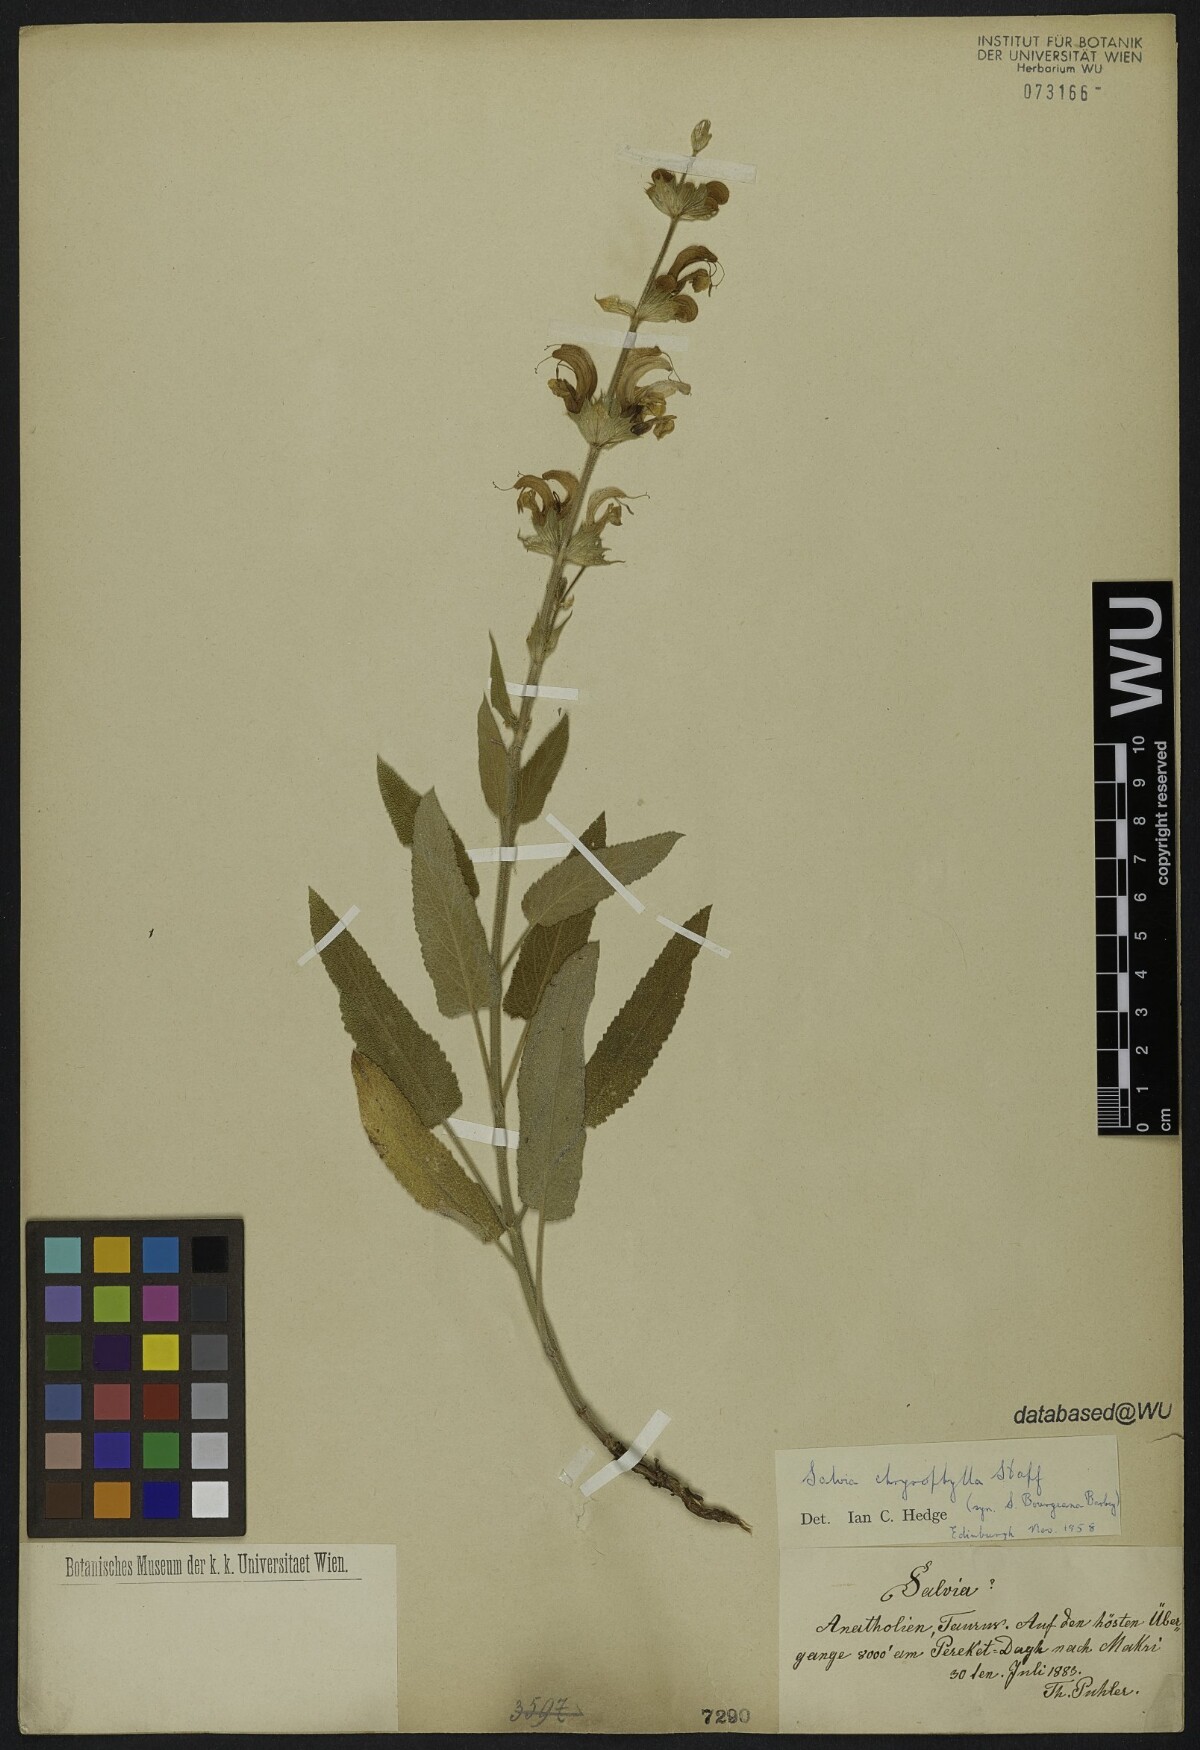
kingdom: Plantae
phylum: Tracheophyta
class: Magnoliopsida
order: Lamiales
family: Lamiaceae
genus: Salvia
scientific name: Salvia chrysophylla
